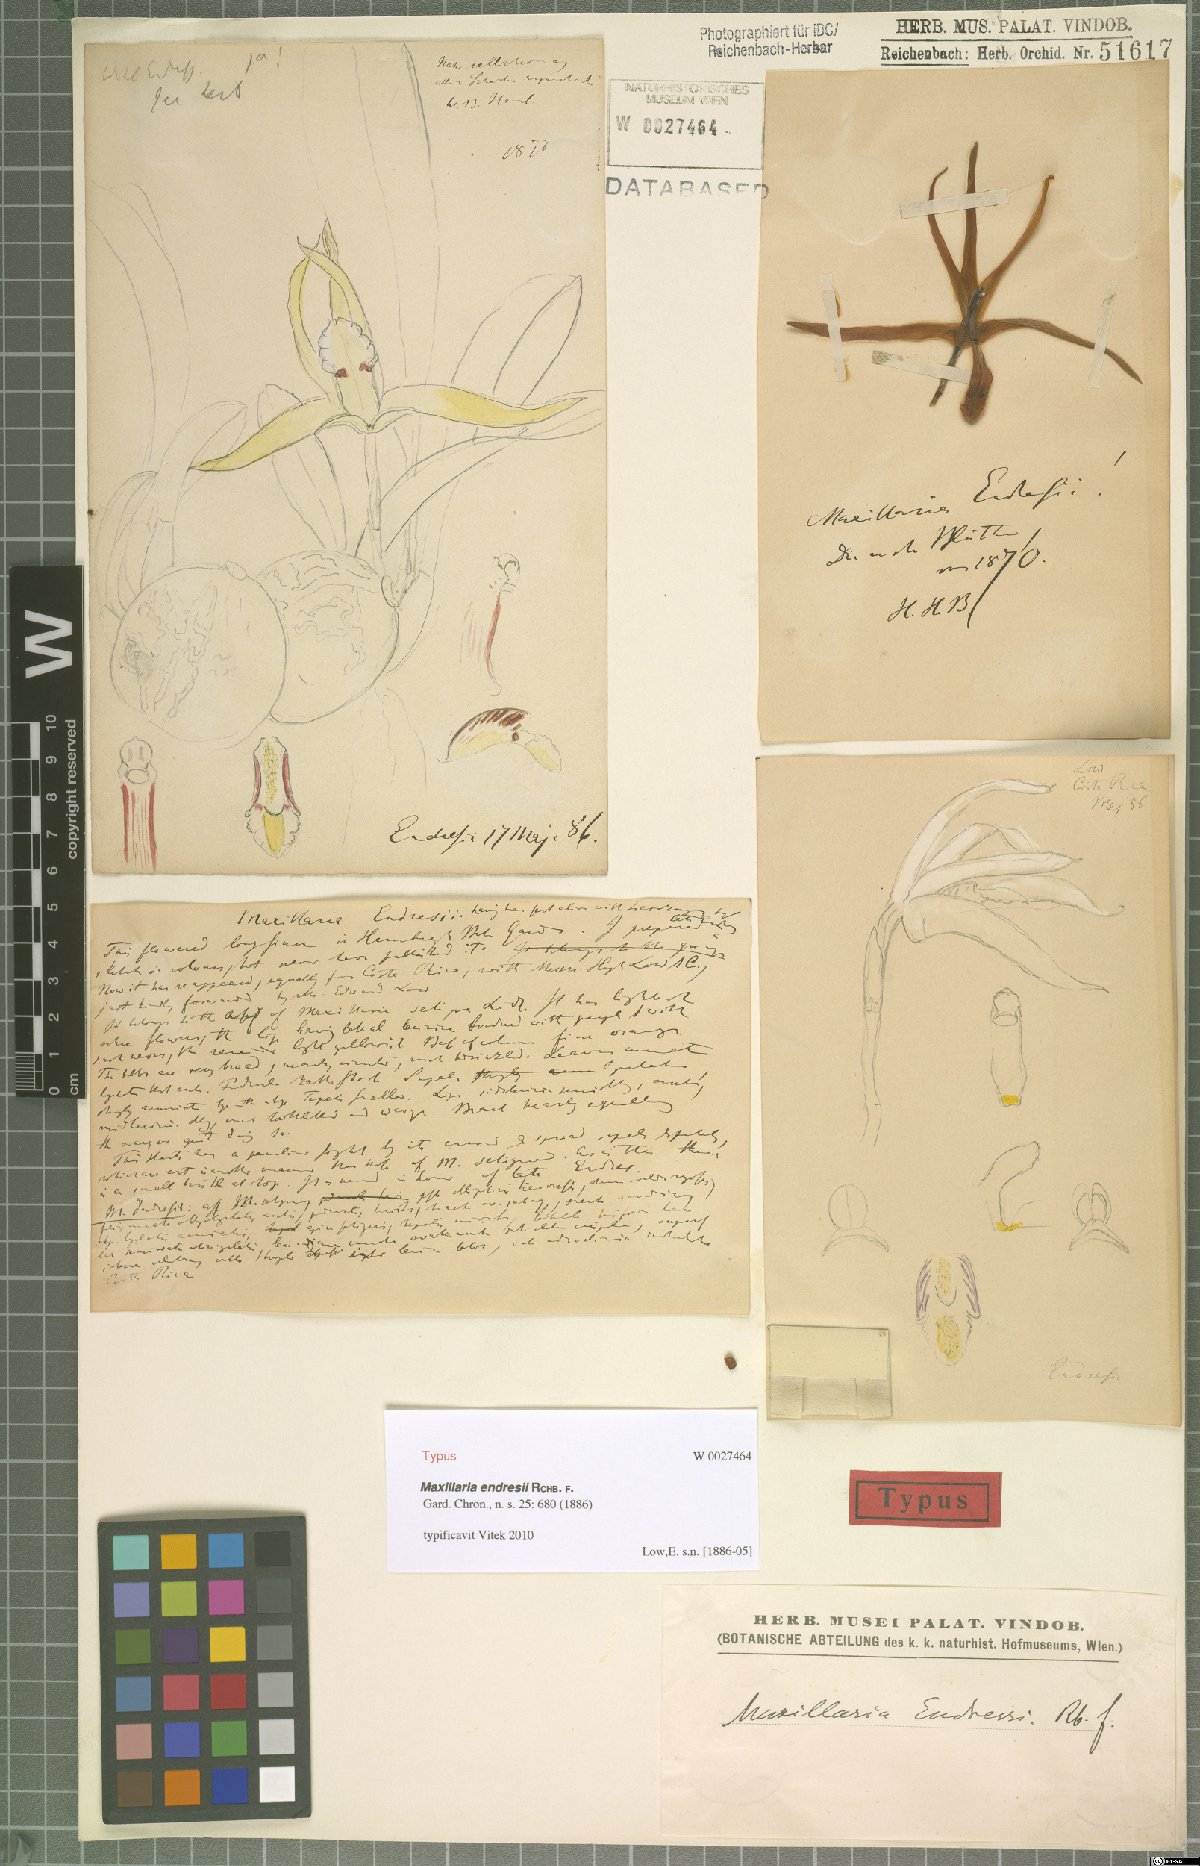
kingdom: Plantae
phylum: Tracheophyta
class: Liliopsida
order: Asparagales
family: Orchidaceae
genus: Maxillaria
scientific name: Maxillaria endresii
